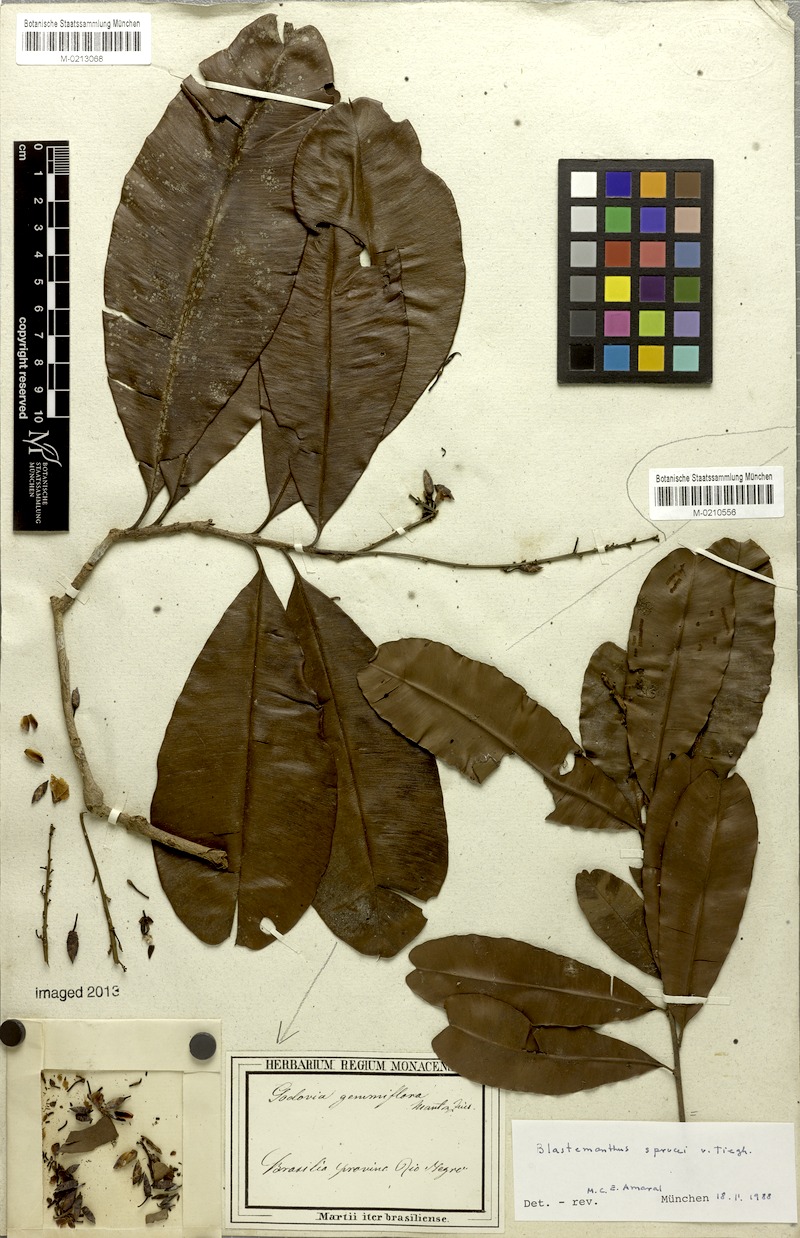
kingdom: Plantae
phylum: Tracheophyta
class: Magnoliopsida
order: Malpighiales
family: Ochnaceae
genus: Blastemanthus
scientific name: Blastemanthus gemmiflorus
